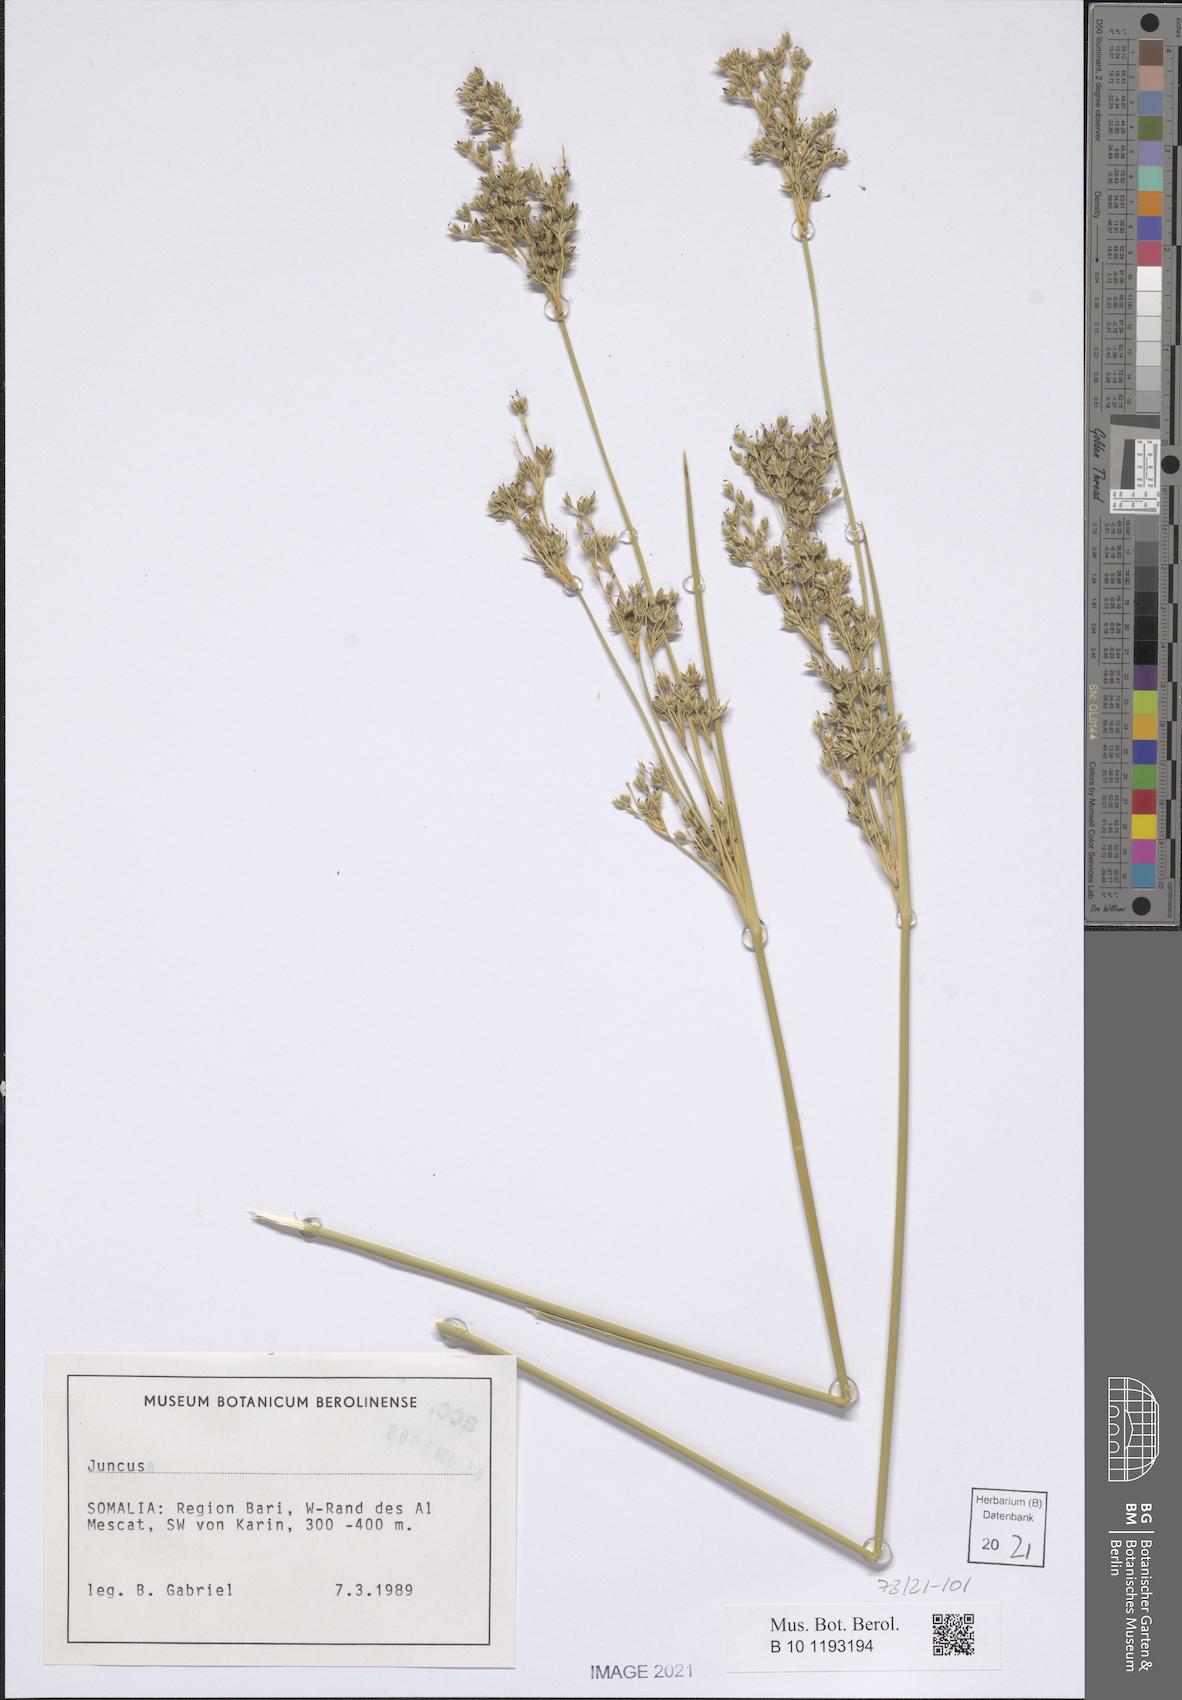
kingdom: Plantae
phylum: Tracheophyta
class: Liliopsida
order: Poales
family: Juncaceae
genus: Juncus
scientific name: Juncus
